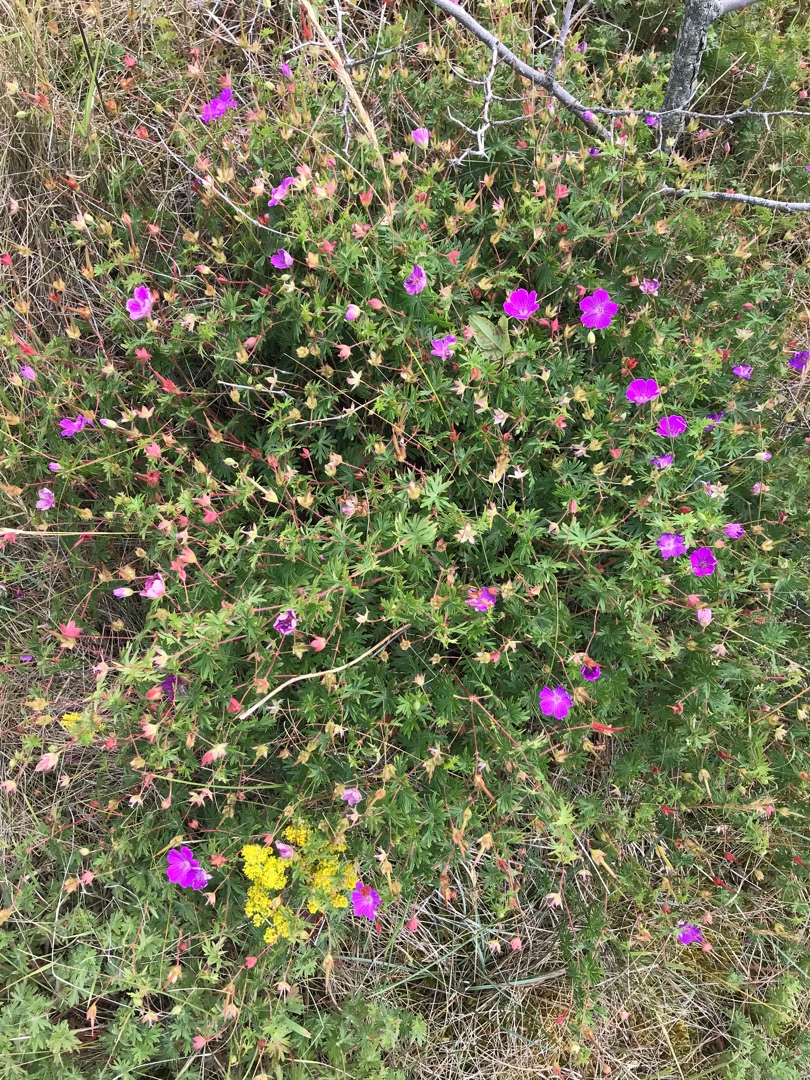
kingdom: Plantae
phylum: Tracheophyta
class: Magnoliopsida
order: Geraniales
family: Geraniaceae
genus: Geranium
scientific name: Geranium sanguineum
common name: Blodrød storkenæb
